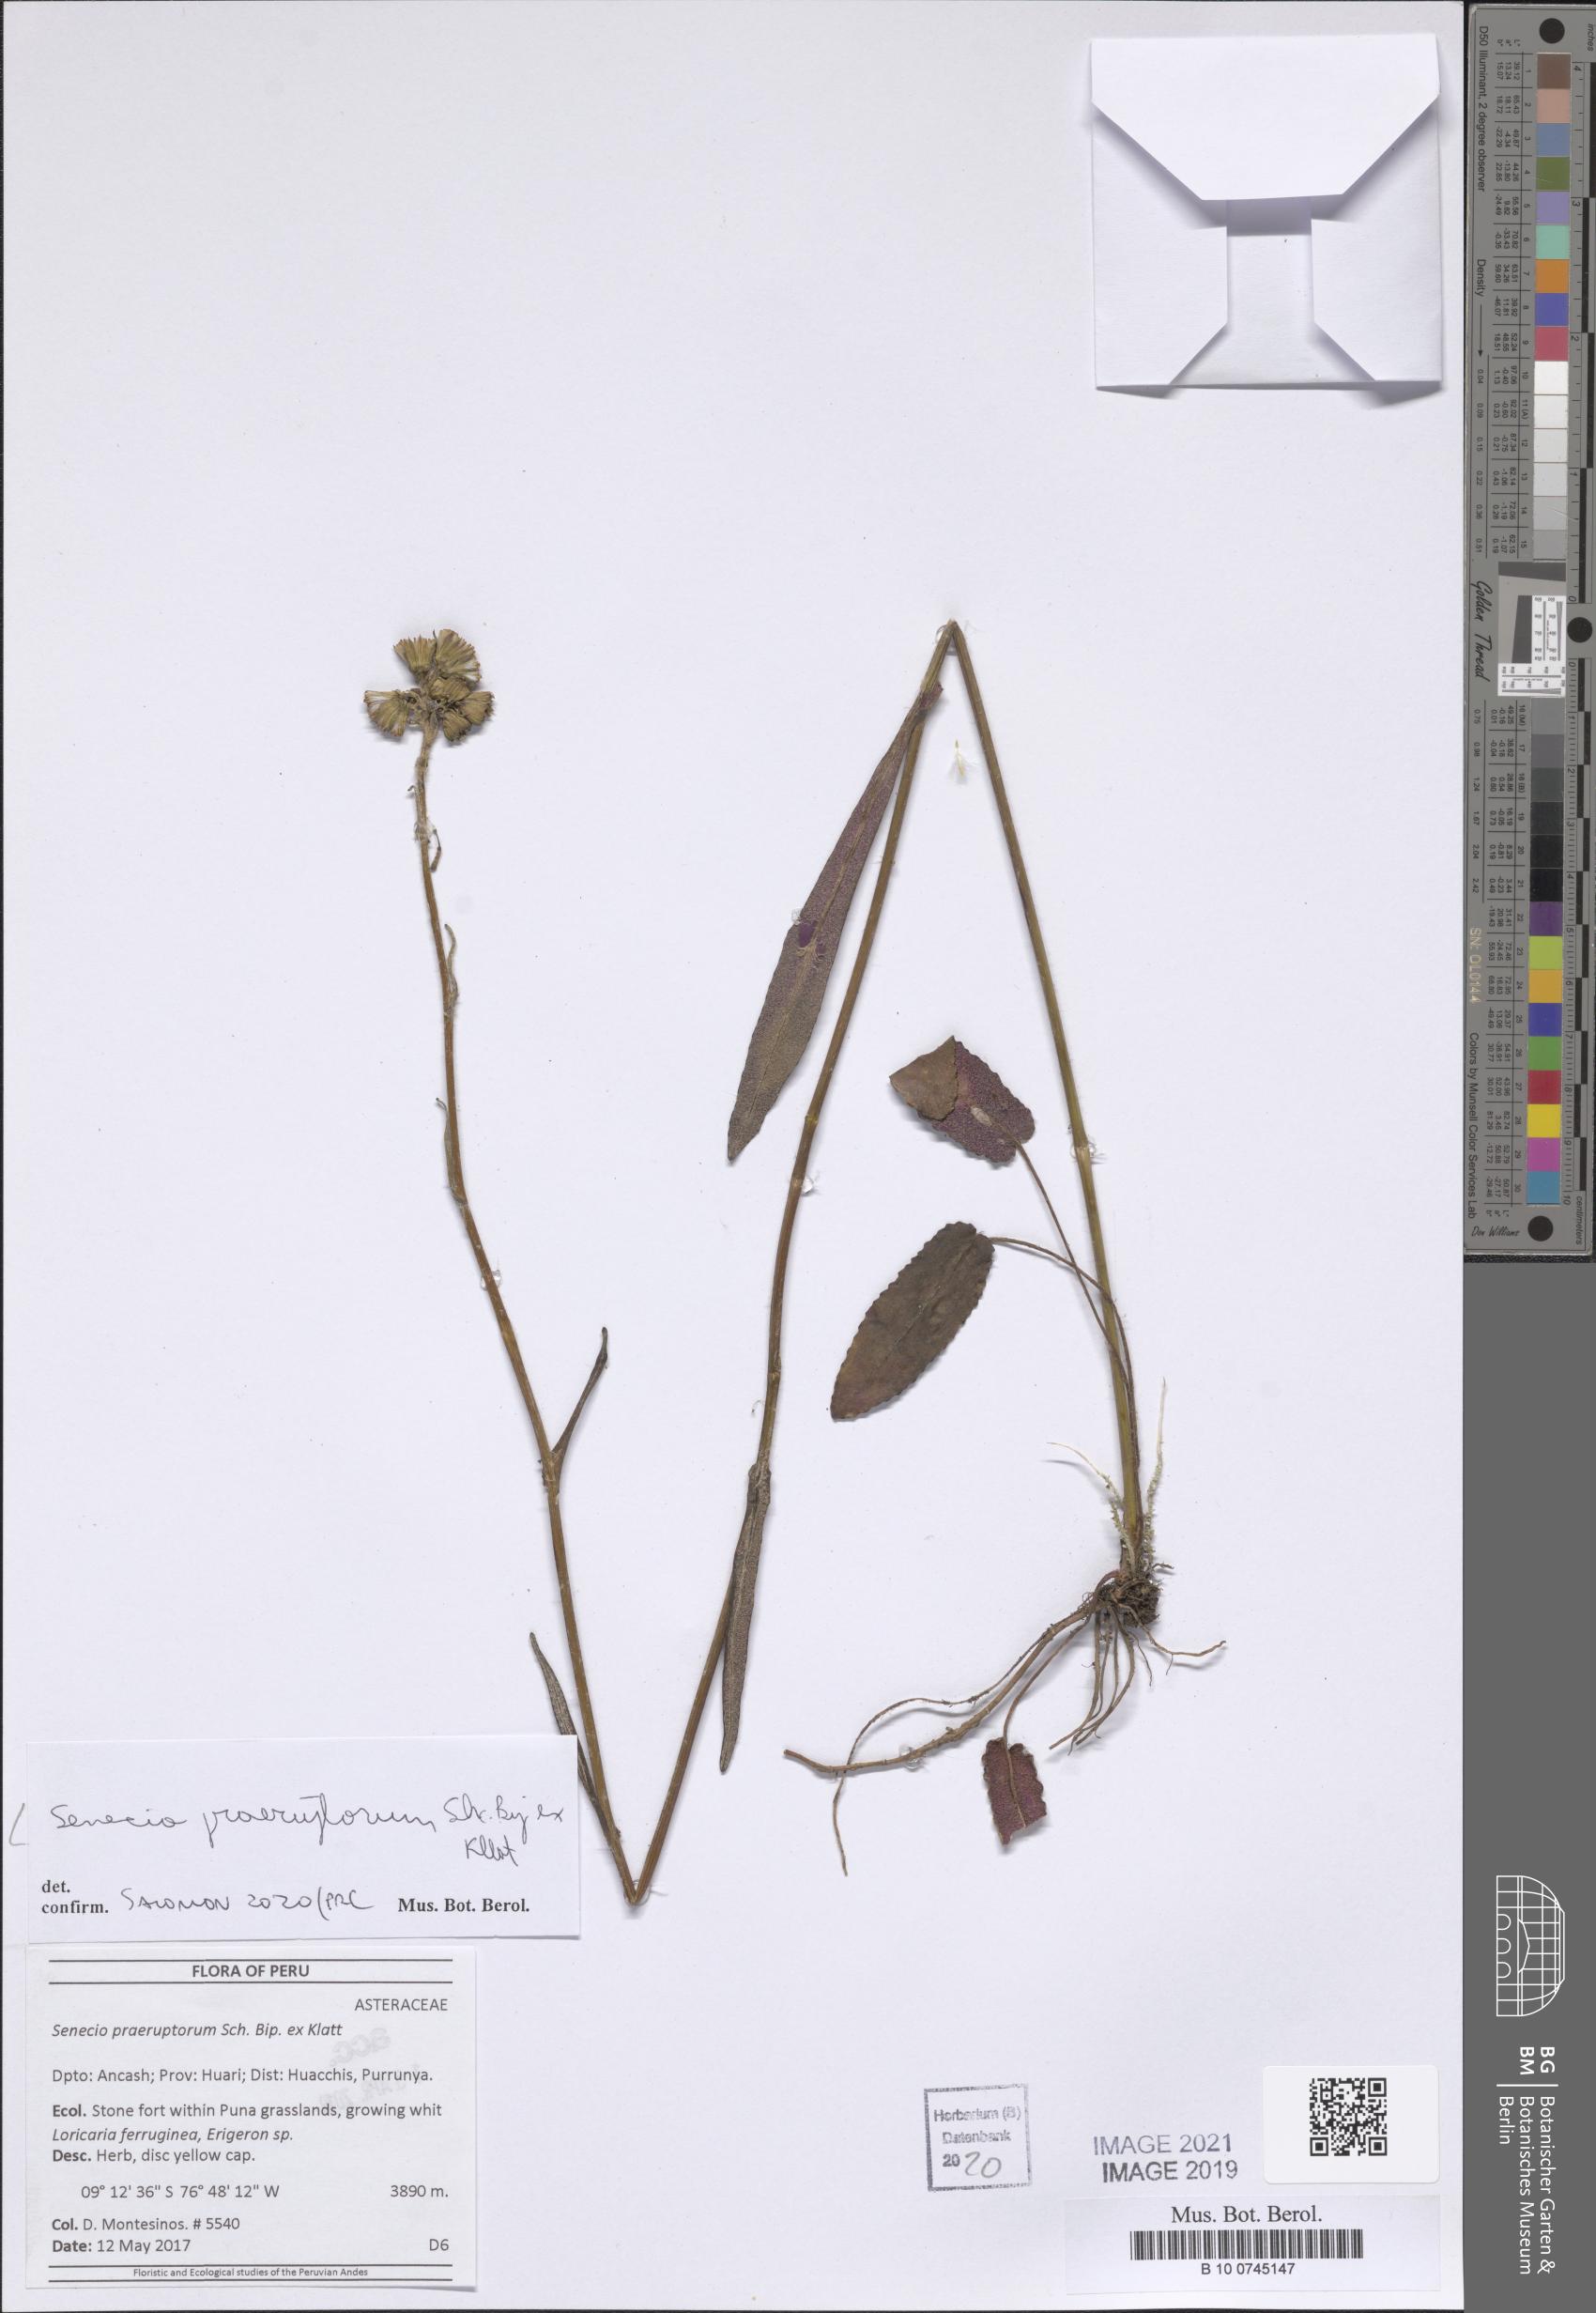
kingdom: Plantae
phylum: Tracheophyta
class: Magnoliopsida
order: Asterales
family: Asteraceae
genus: Senecio
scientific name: Senecio praeruptorum
